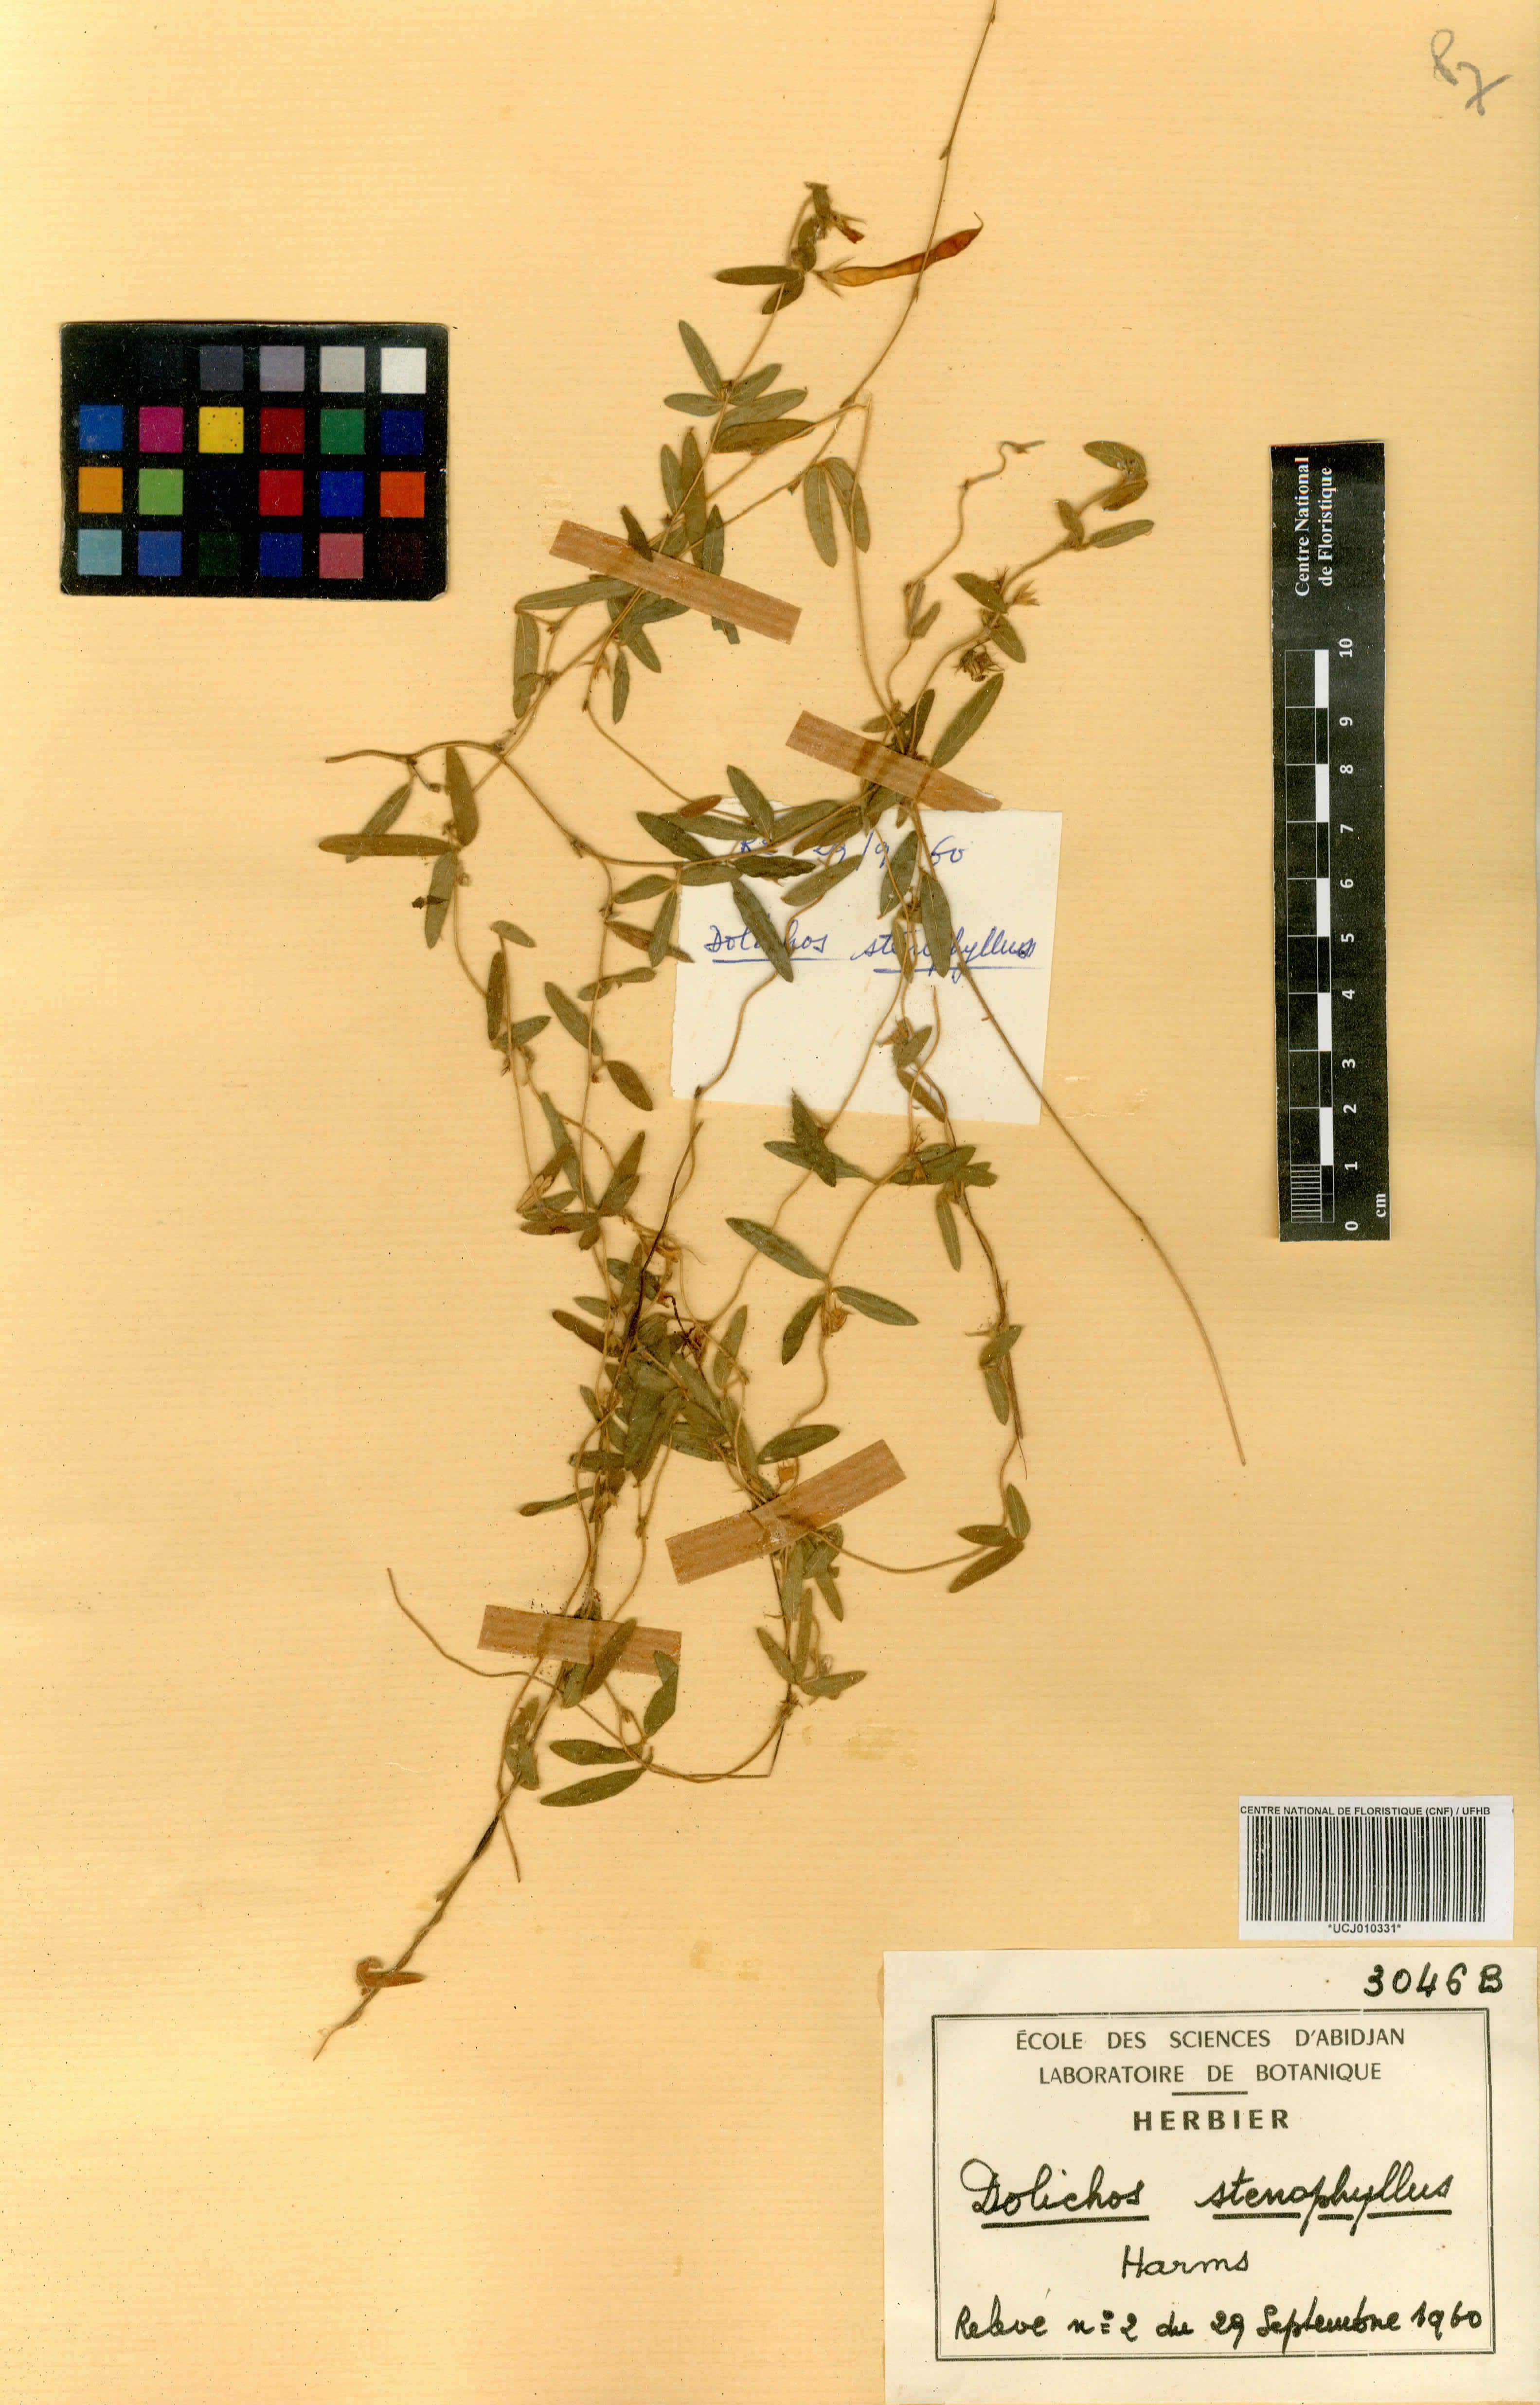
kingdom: Plantae
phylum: Tracheophyta
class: Magnoliopsida
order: Fabales
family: Fabaceae
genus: Macrotyloma
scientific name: Macrotyloma stenophyllum
